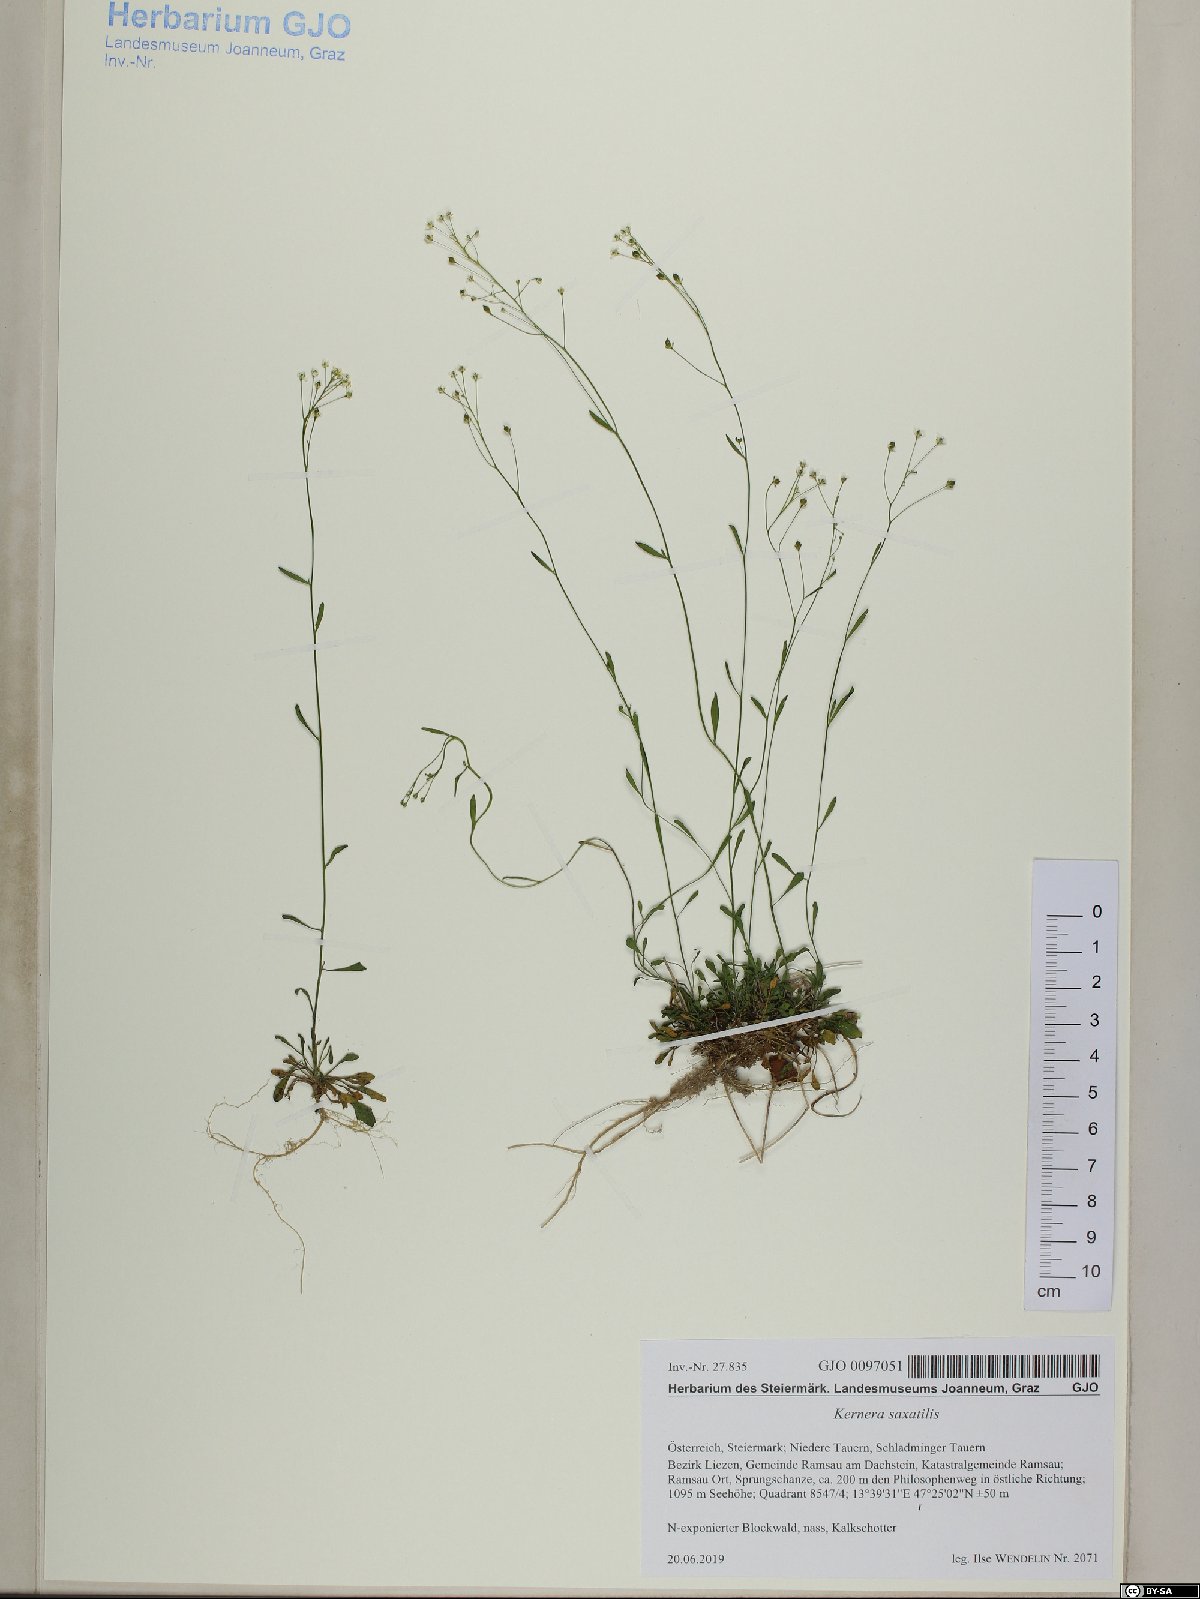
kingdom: Plantae
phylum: Tracheophyta
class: Magnoliopsida
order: Brassicales
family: Brassicaceae
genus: Kernera
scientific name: Kernera saxatilis
